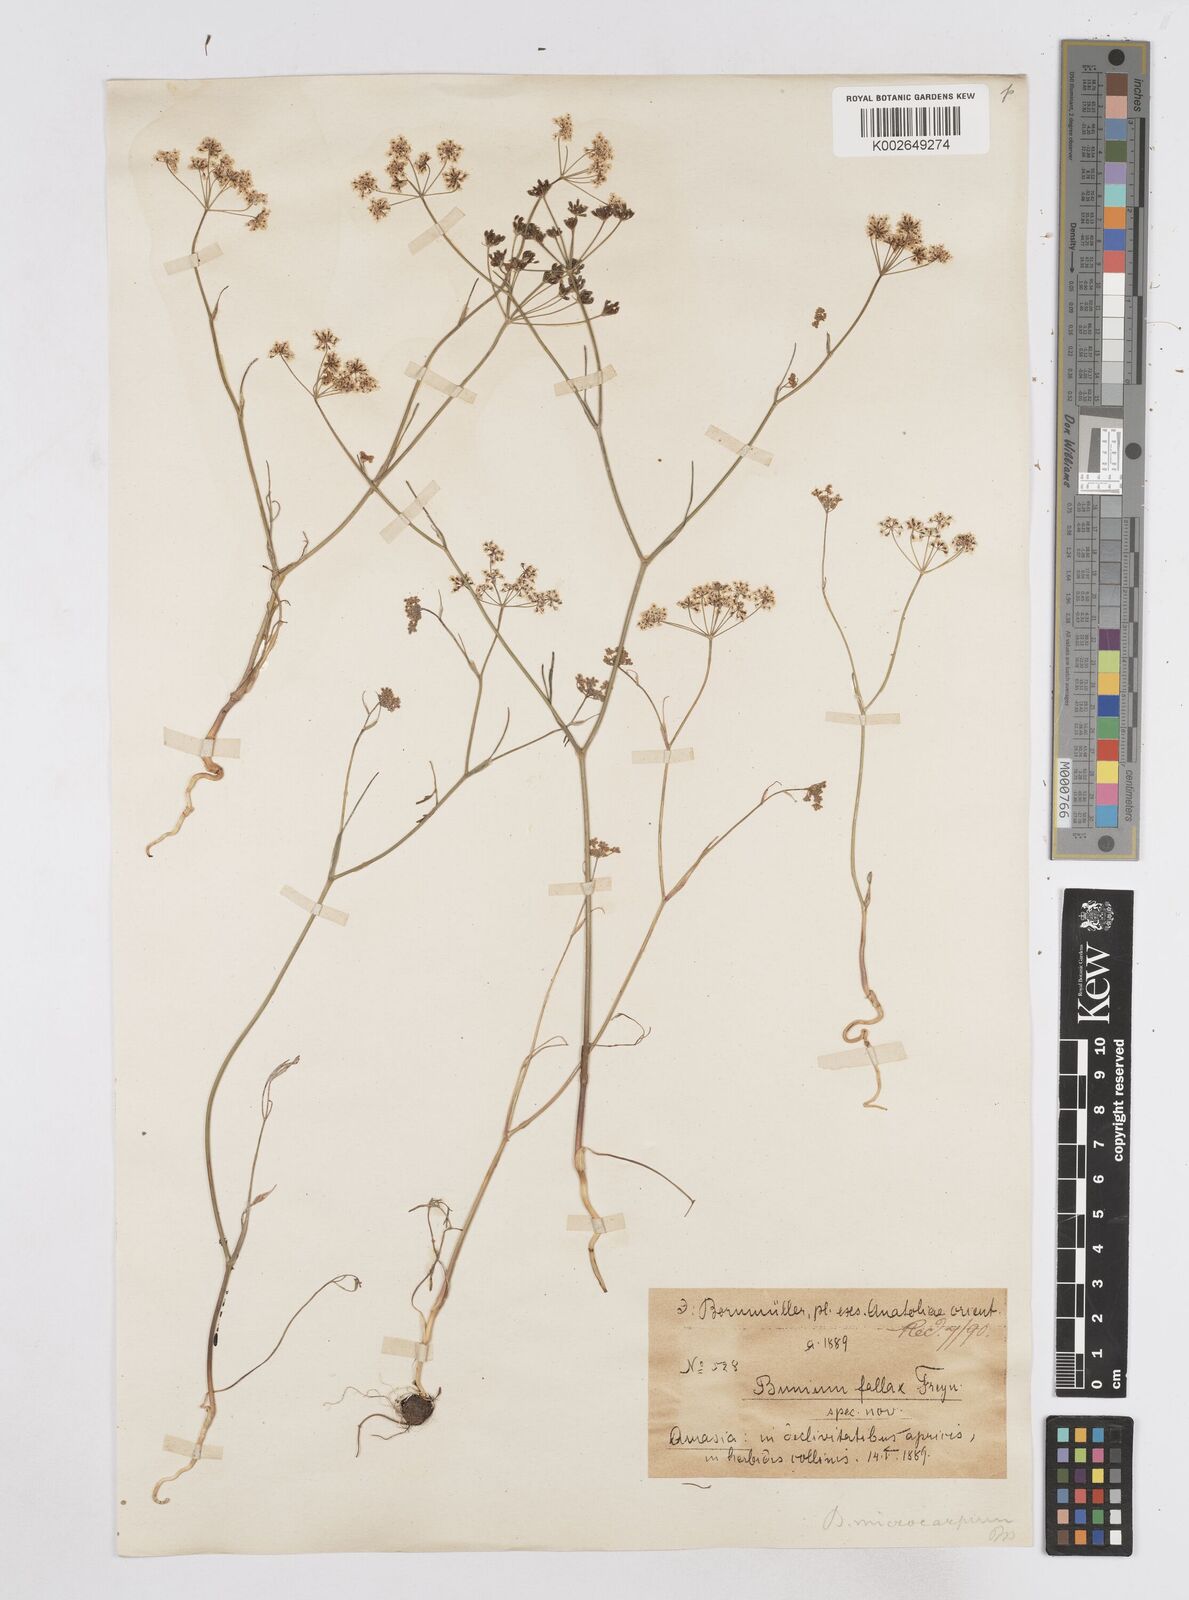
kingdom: Plantae
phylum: Tracheophyta
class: Magnoliopsida
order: Apiales
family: Apiaceae
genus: Bunium
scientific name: Bunium bourgaei
